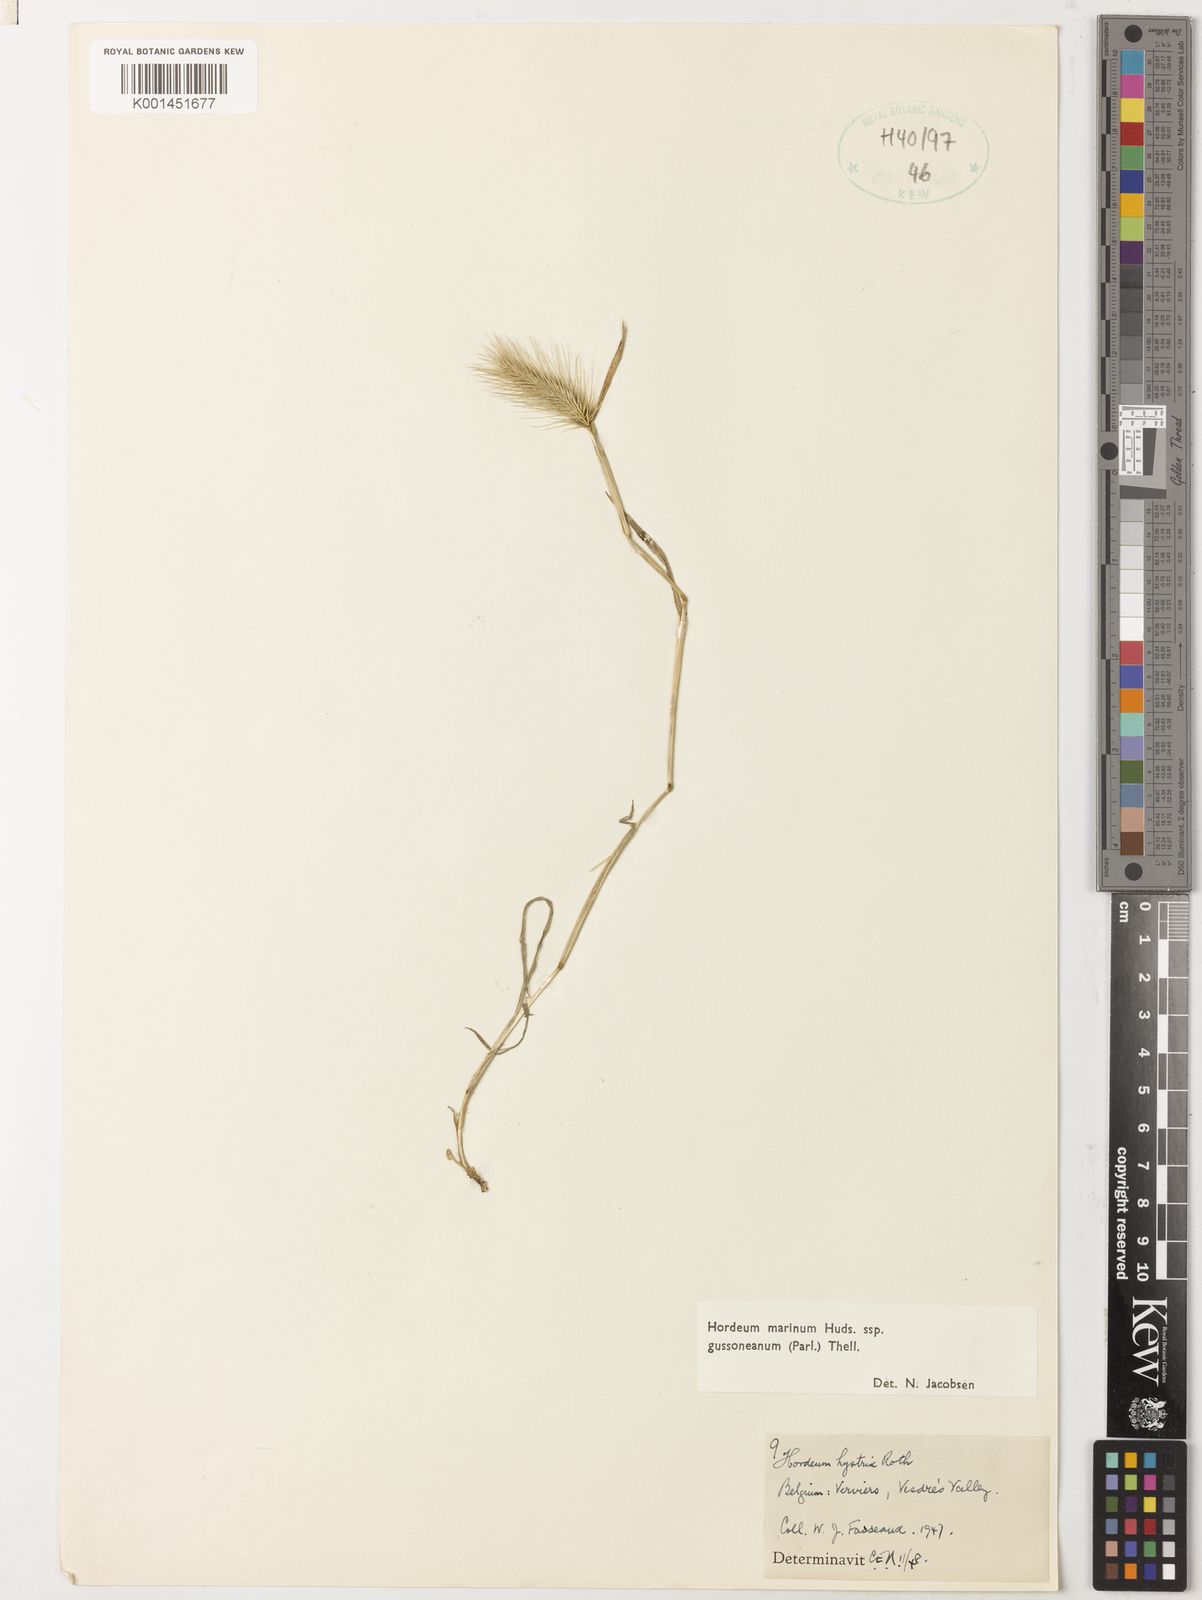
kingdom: Plantae
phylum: Tracheophyta
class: Liliopsida
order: Poales
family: Poaceae
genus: Hordeum
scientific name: Hordeum marinum
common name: Sea barley
